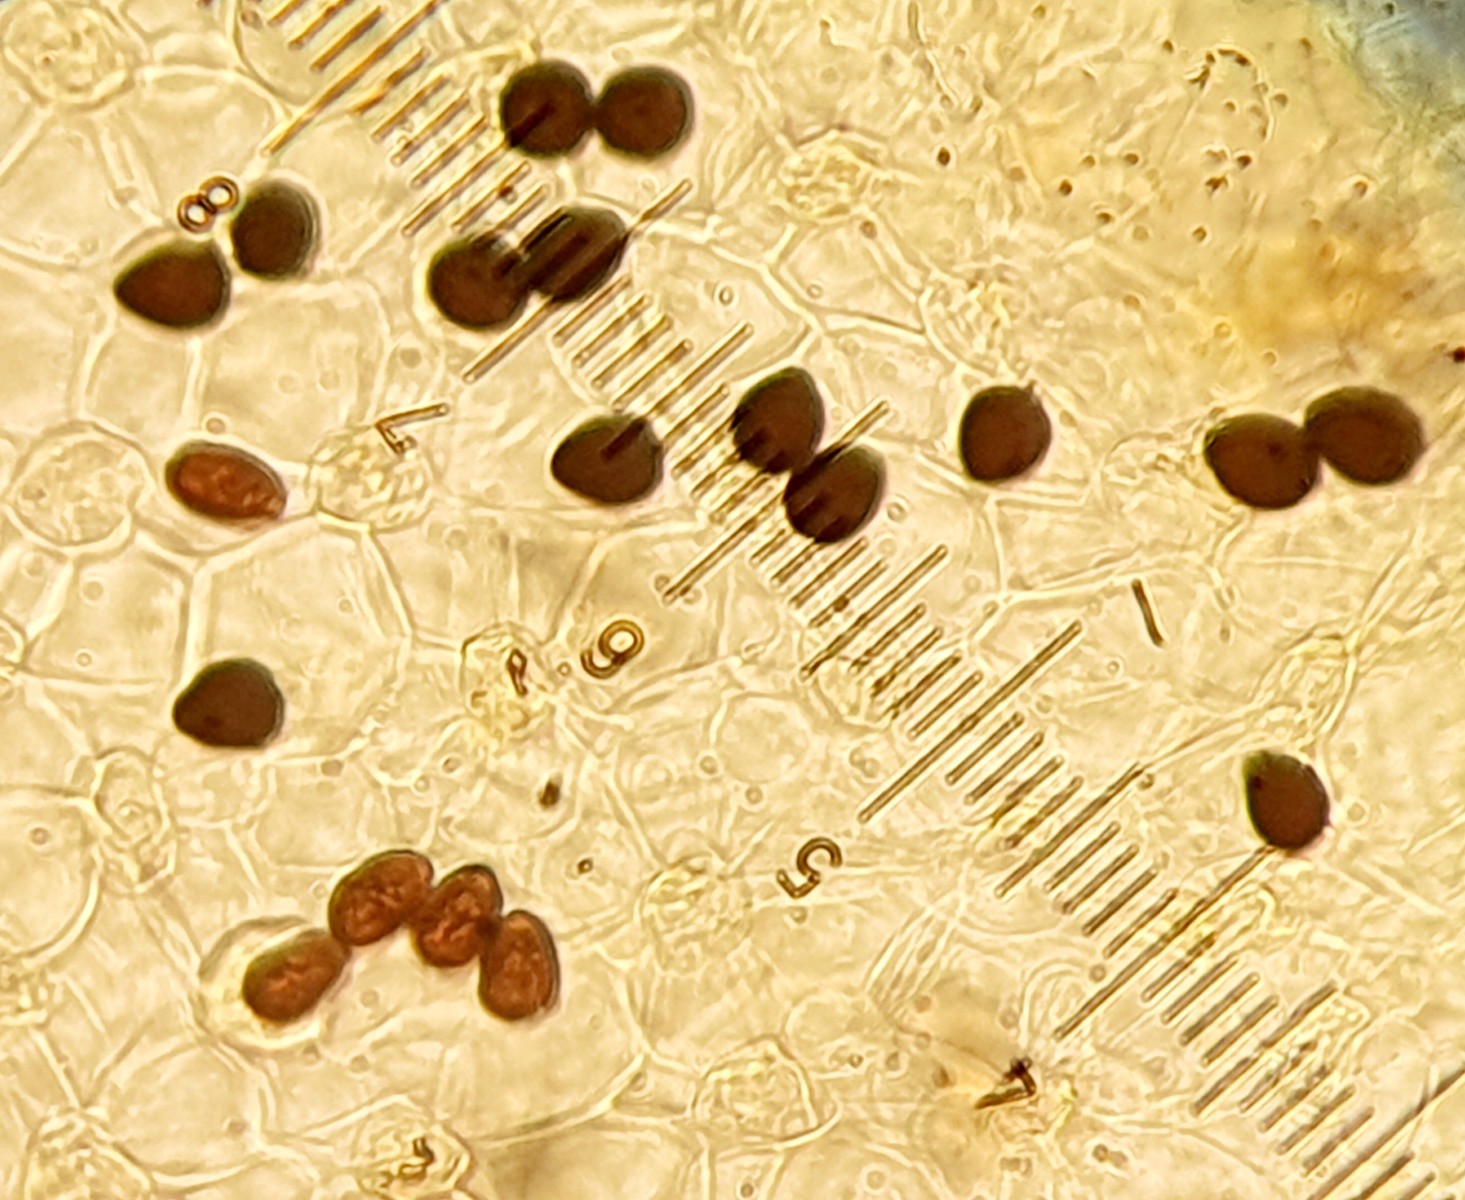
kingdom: Fungi
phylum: Basidiomycota
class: Agaricomycetes
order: Agaricales
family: Psathyrellaceae
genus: Parasola
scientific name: Parasola
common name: hjulhat
